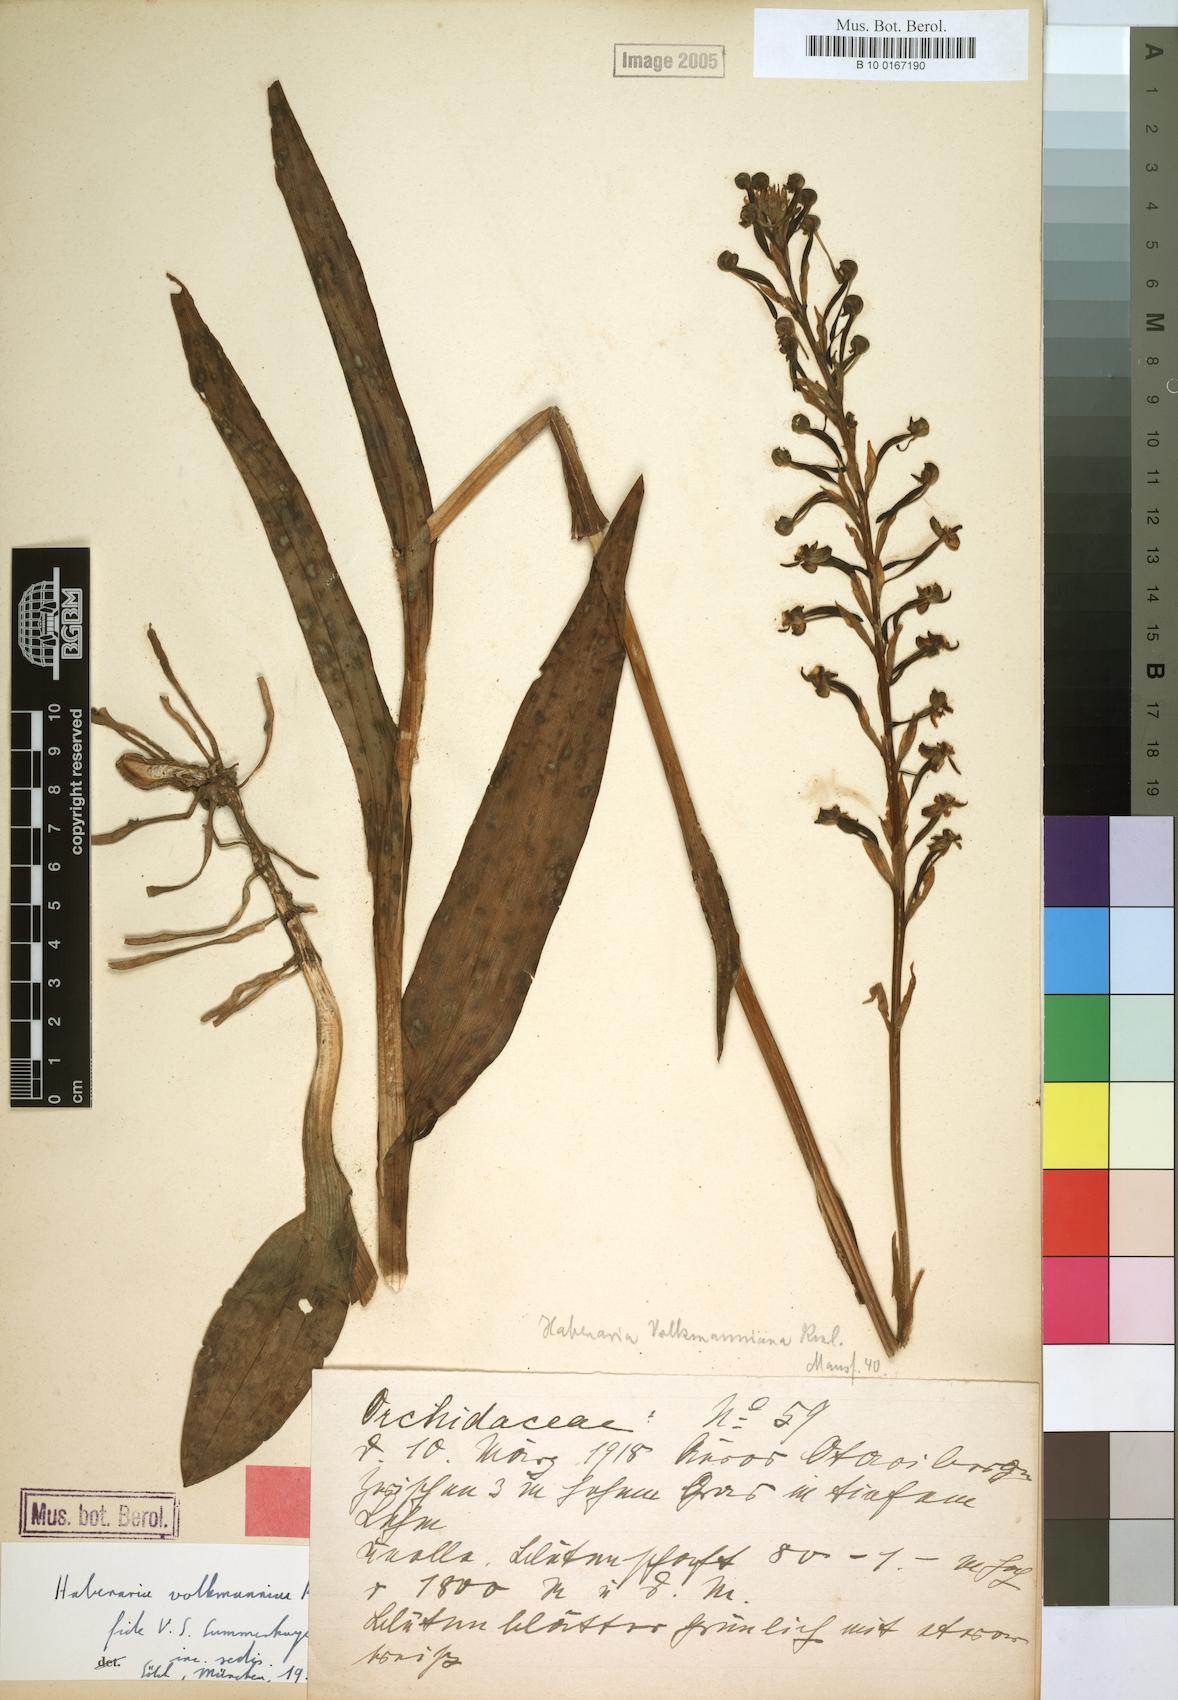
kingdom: Plantae
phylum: Tracheophyta
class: Liliopsida
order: Asparagales
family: Orchidaceae
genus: Habenaria
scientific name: Habenaria volkmanniae
